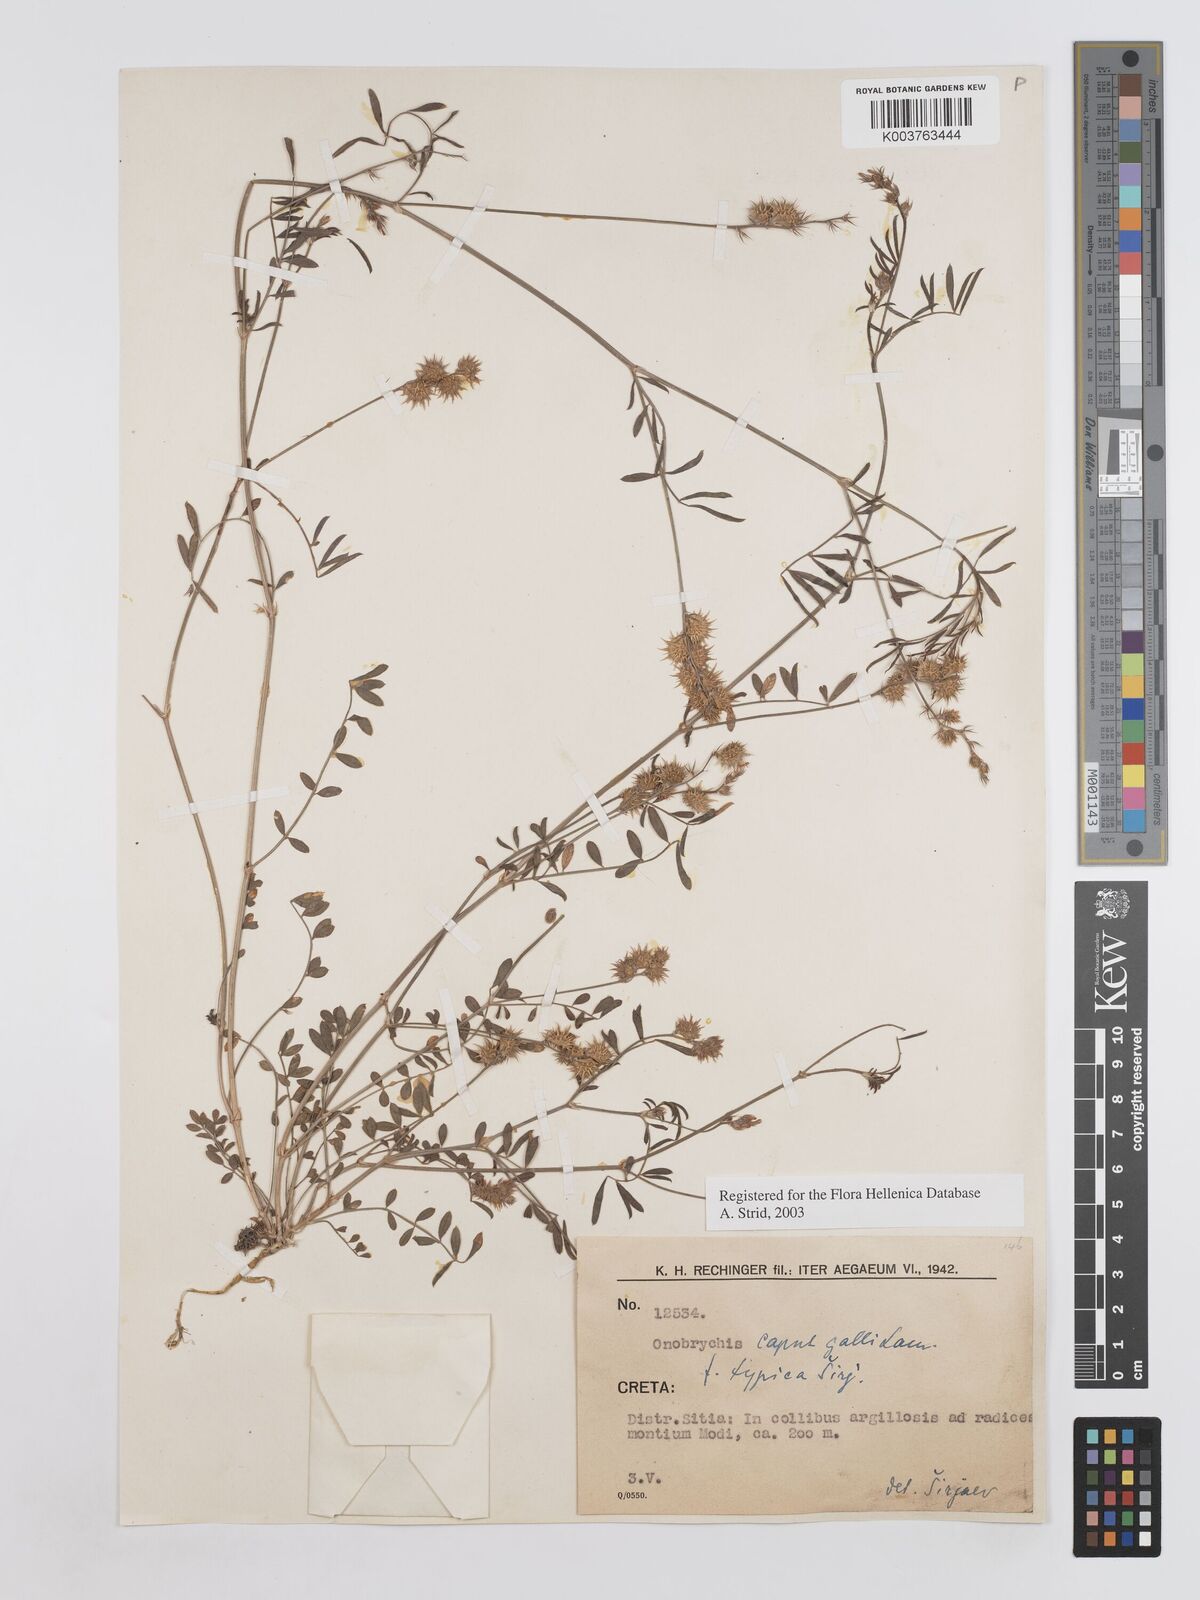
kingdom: Plantae
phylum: Tracheophyta
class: Magnoliopsida
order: Fabales
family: Fabaceae
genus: Onobrychis
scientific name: Onobrychis caput-galli
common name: Cockscomb sainfoin
